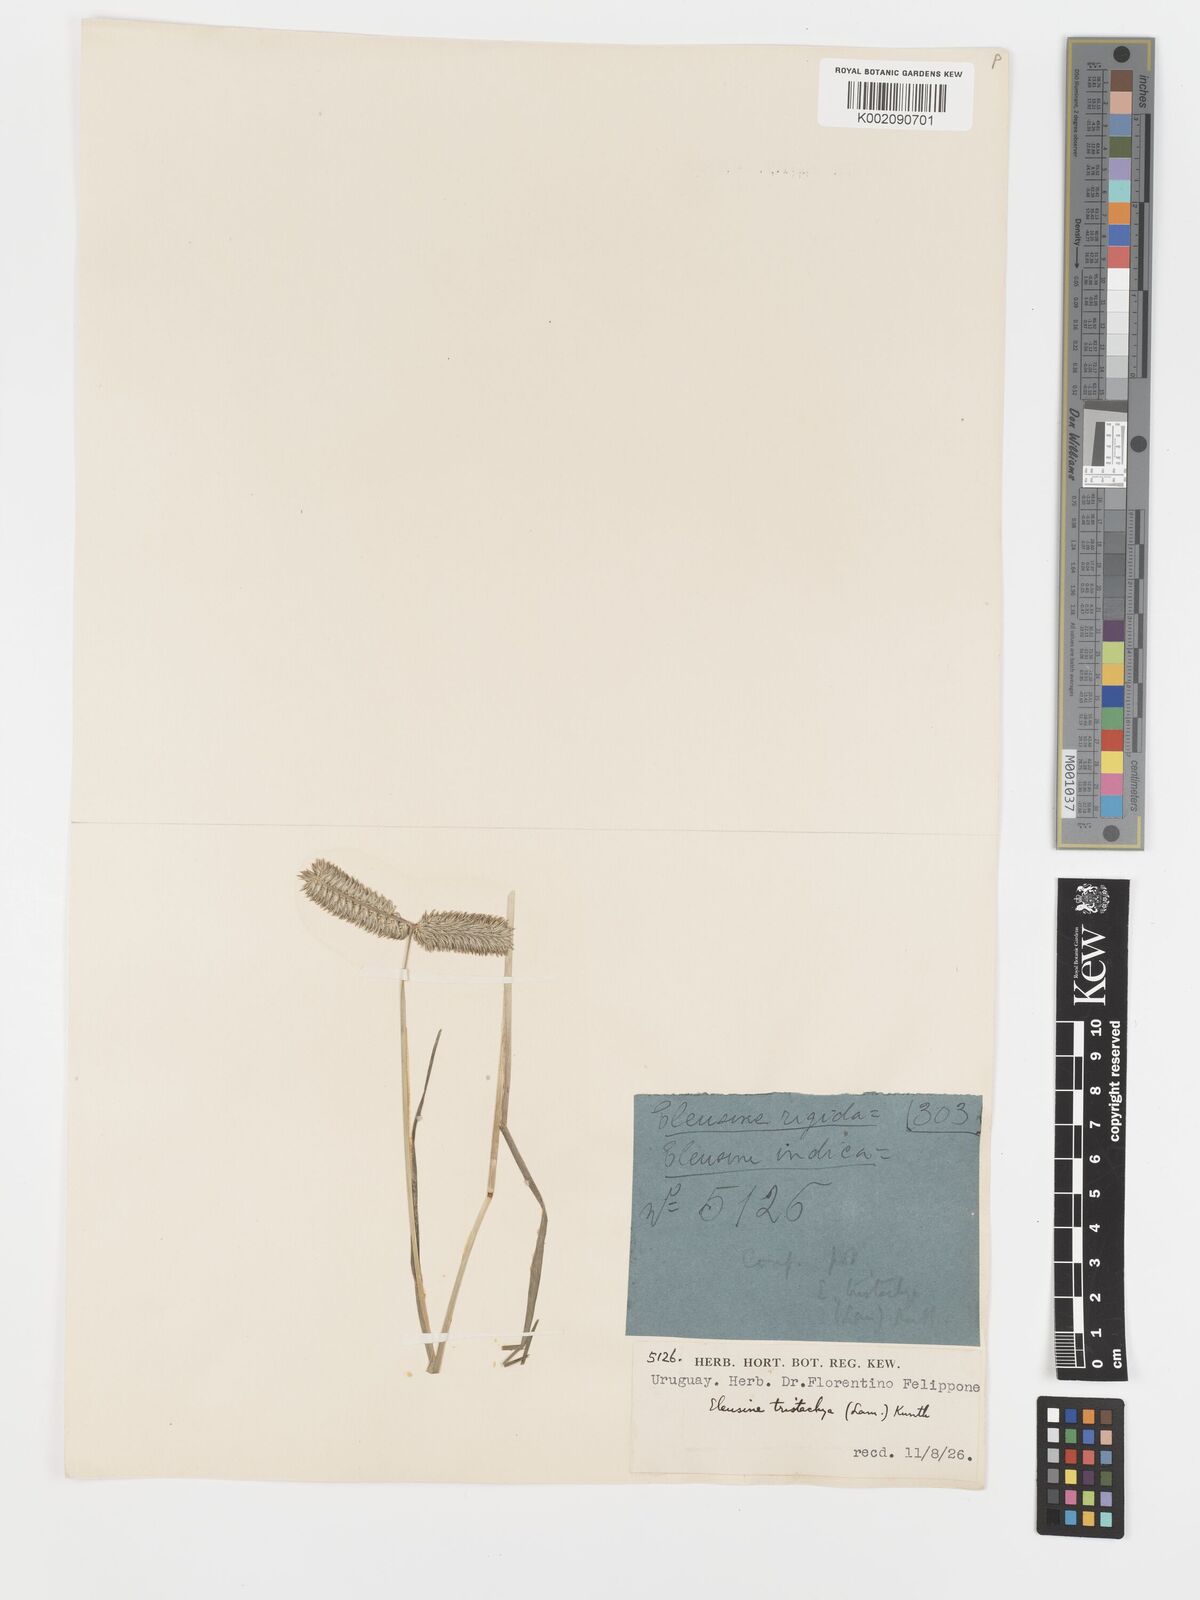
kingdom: Plantae
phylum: Tracheophyta
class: Liliopsida
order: Poales
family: Poaceae
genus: Eleusine
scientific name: Eleusine tristachya
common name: American yard-grass
